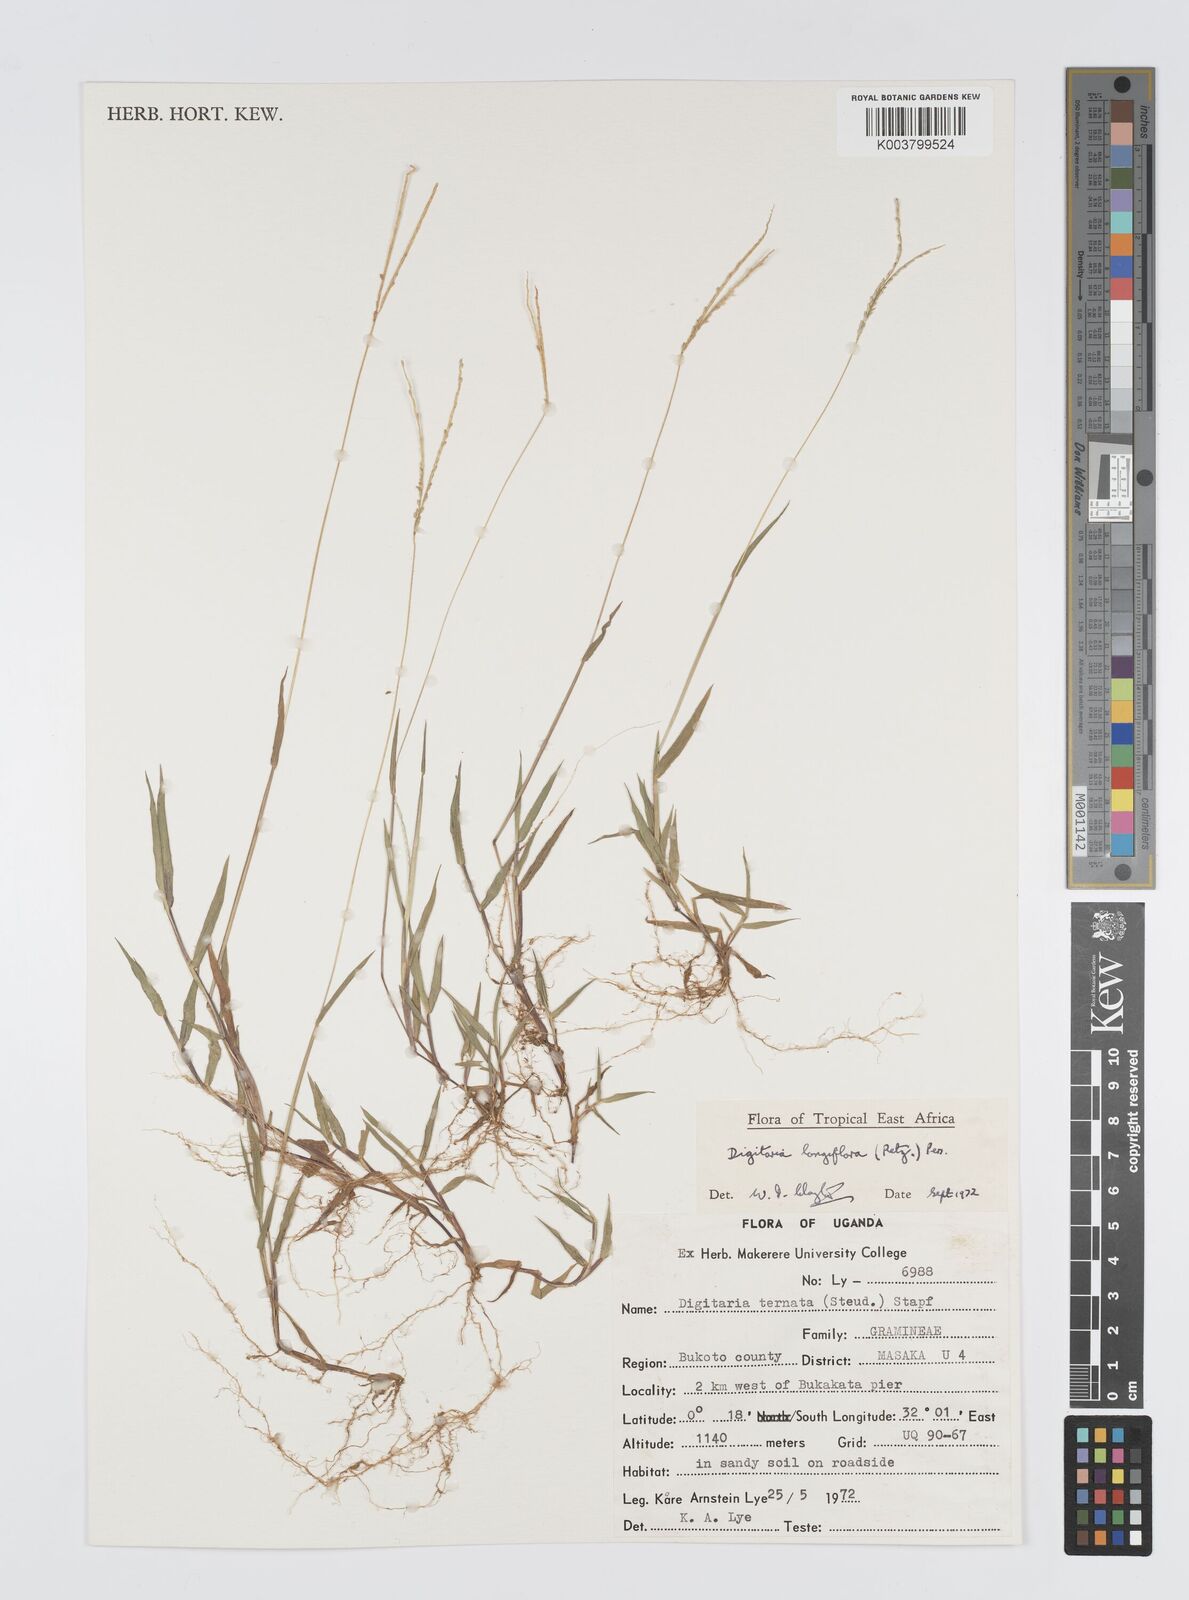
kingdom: Plantae
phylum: Tracheophyta
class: Liliopsida
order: Poales
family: Poaceae
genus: Digitaria
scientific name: Digitaria longiflora
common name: Wire crabgrass
